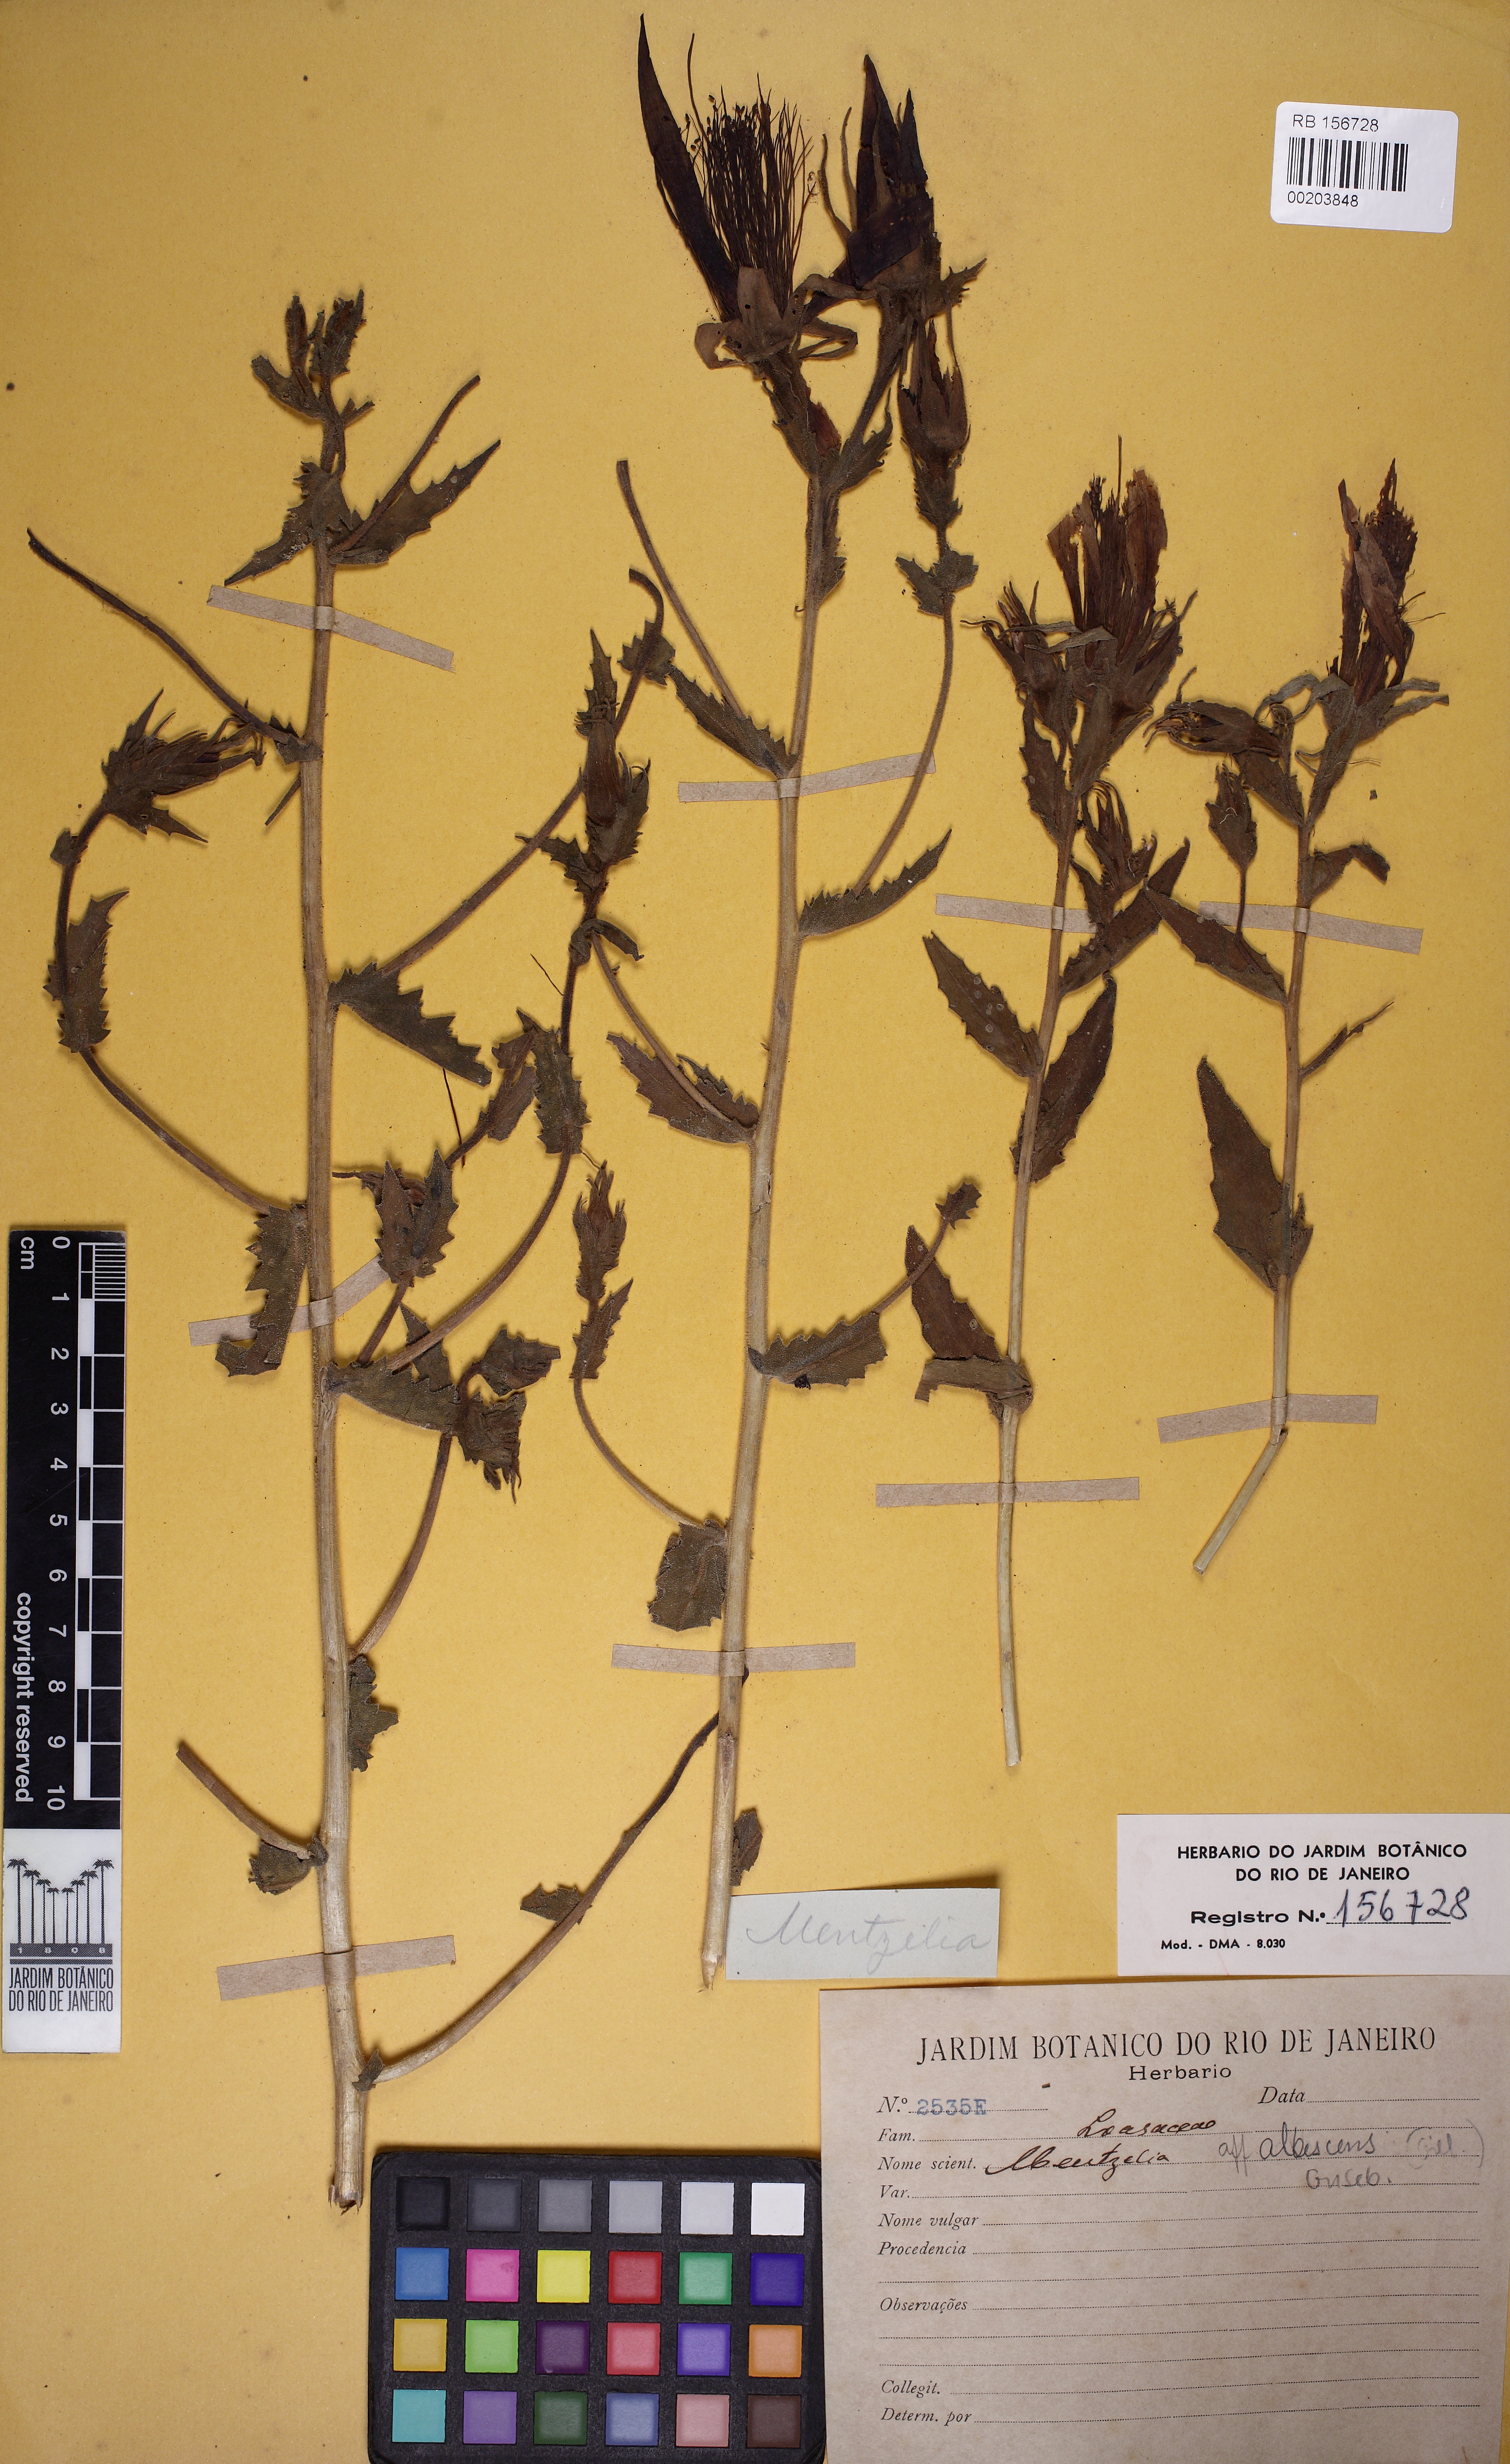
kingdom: Plantae
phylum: Tracheophyta
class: Magnoliopsida
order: Cornales
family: Loasaceae
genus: Mentzelia
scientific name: Mentzelia albescens
